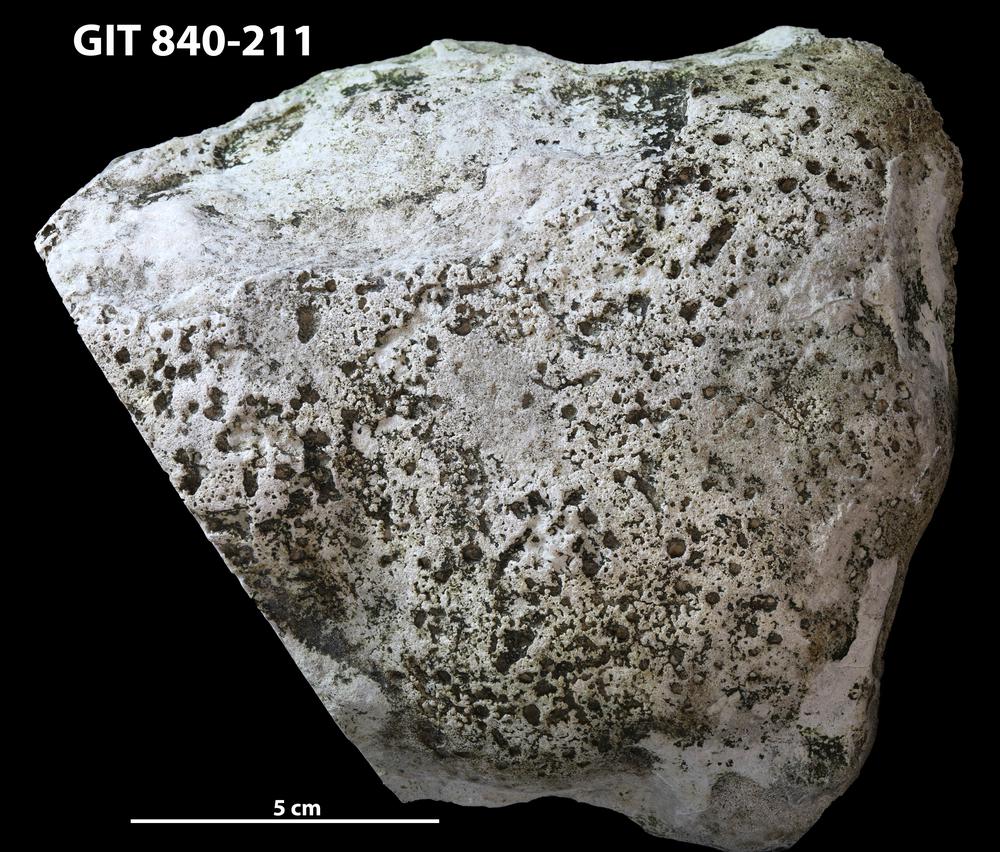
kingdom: Animalia
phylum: Cnidaria
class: Anthozoa
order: Heliolitina
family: Heliolitidae
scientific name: Heliolitidae
